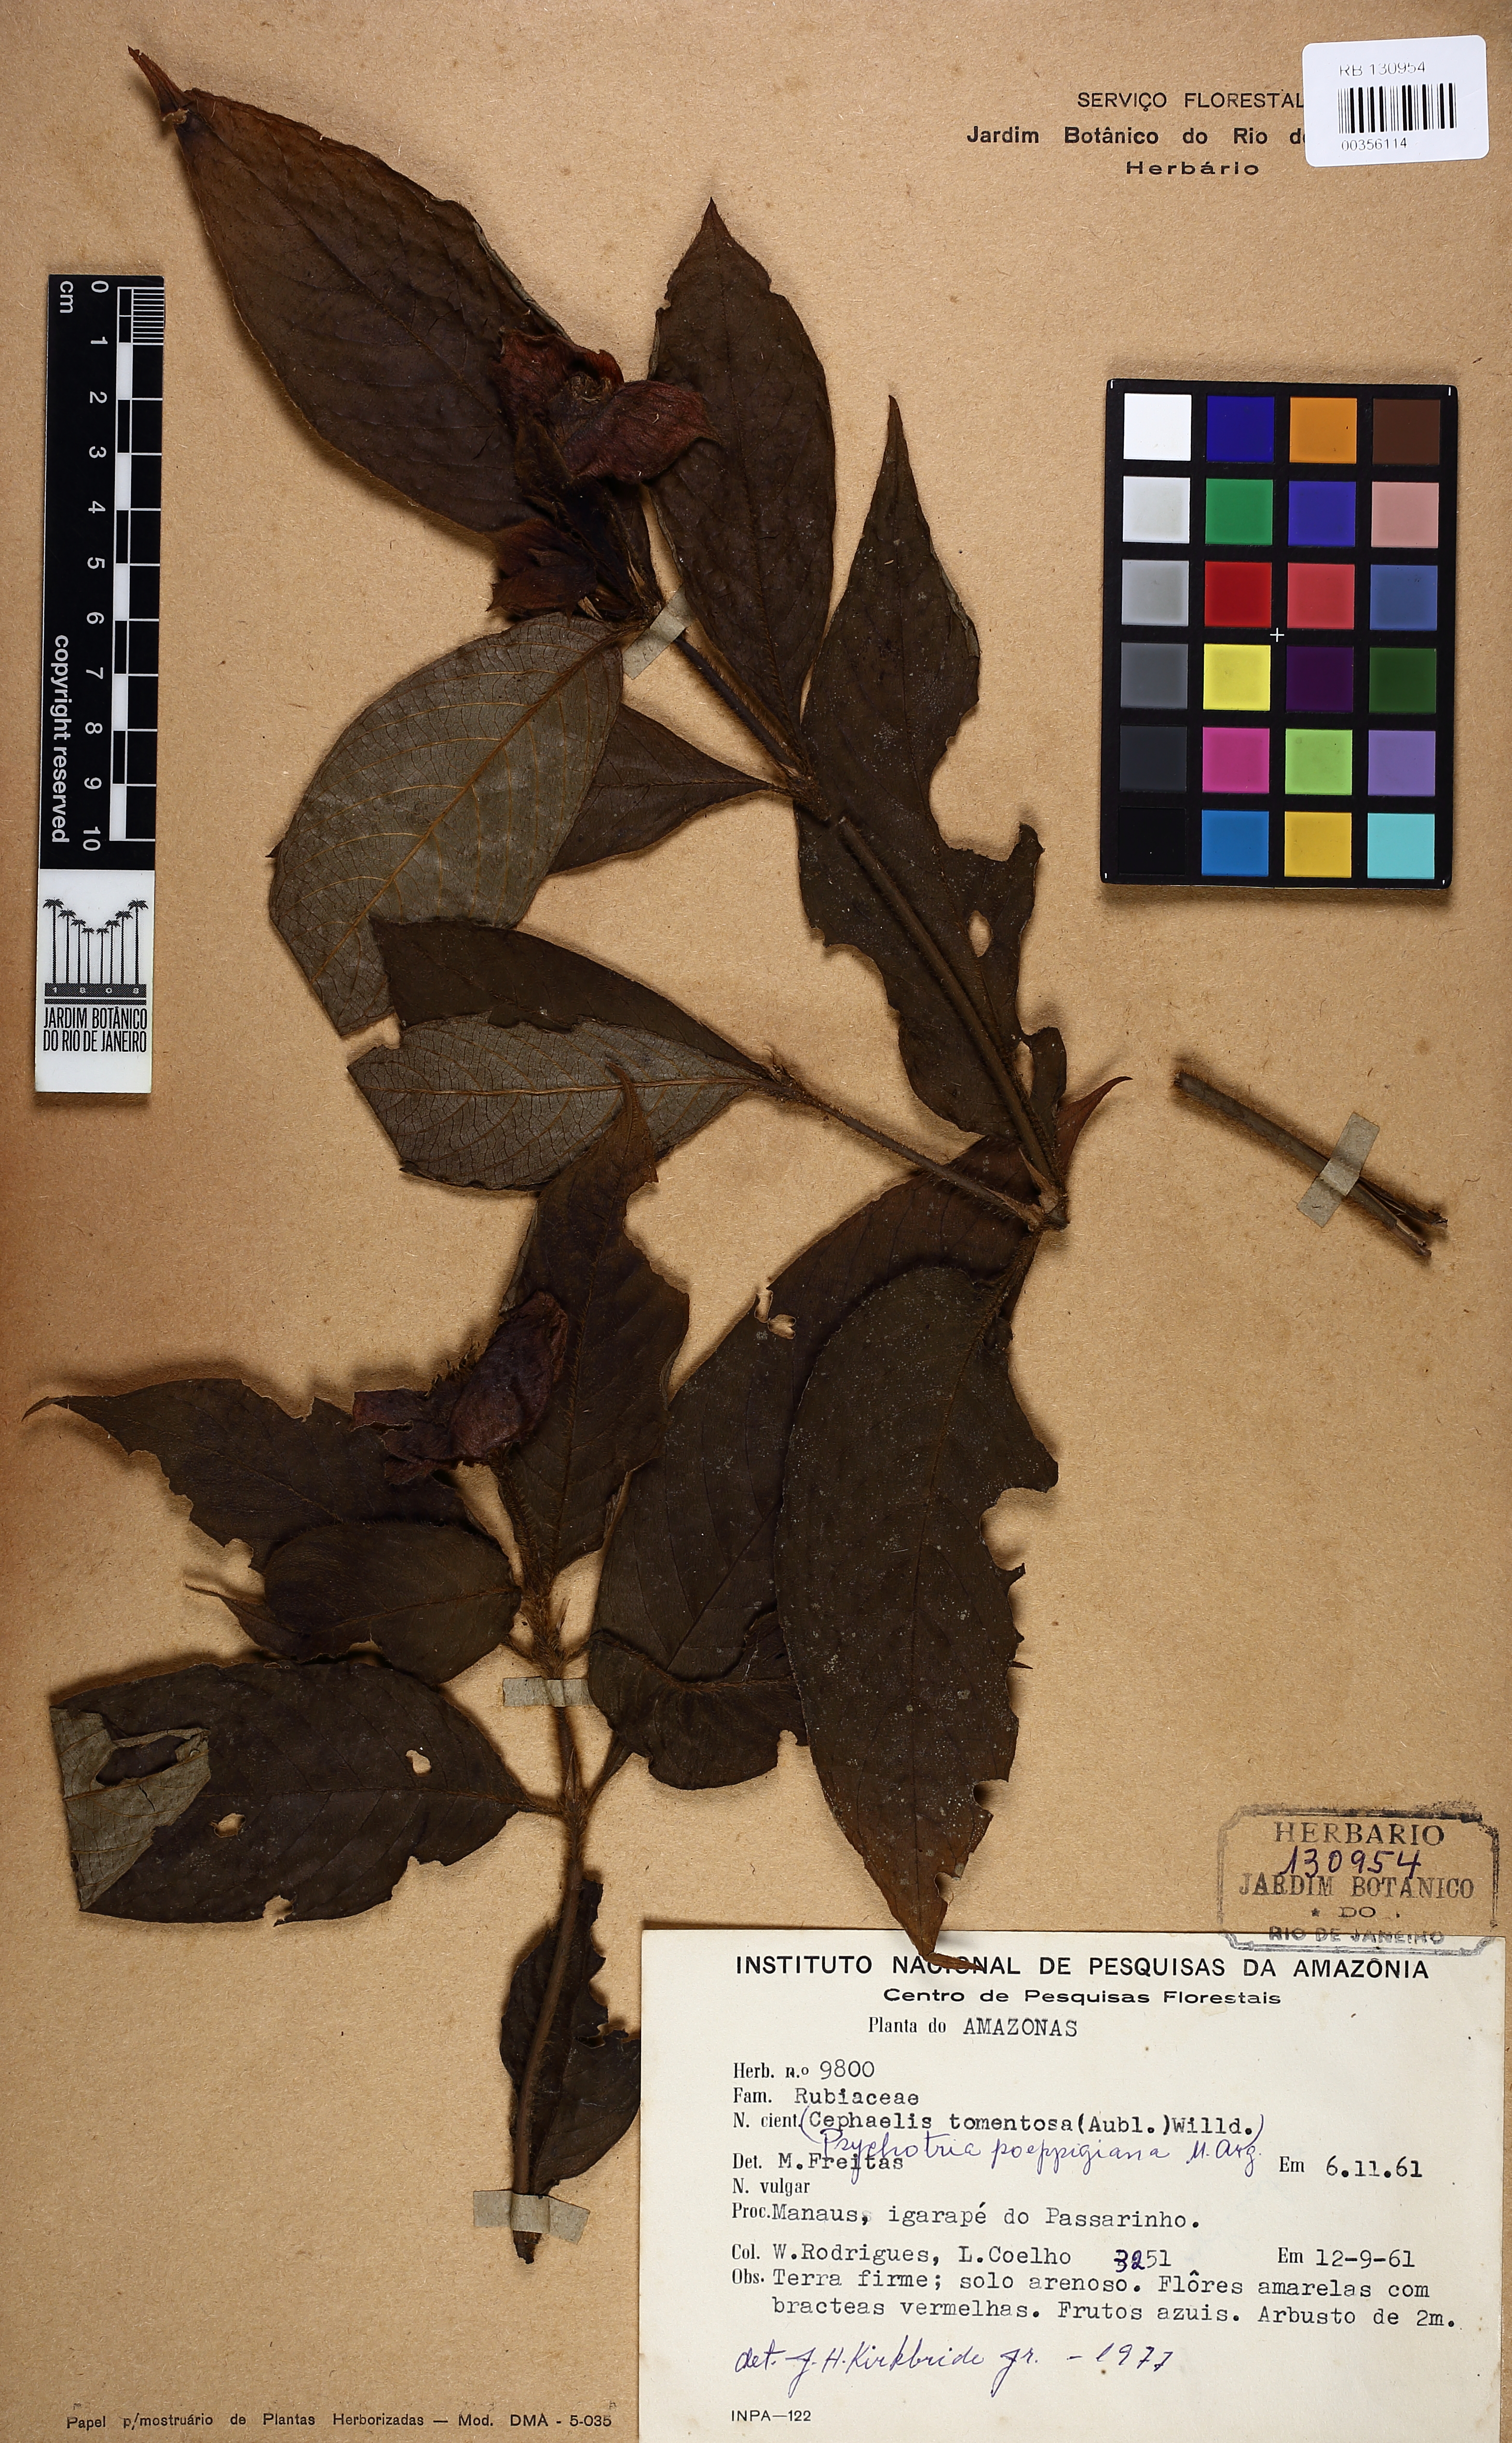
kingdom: Plantae
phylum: Tracheophyta
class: Magnoliopsida
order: Gentianales
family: Rubiaceae
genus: Palicourea
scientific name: Palicourea tomentosa
